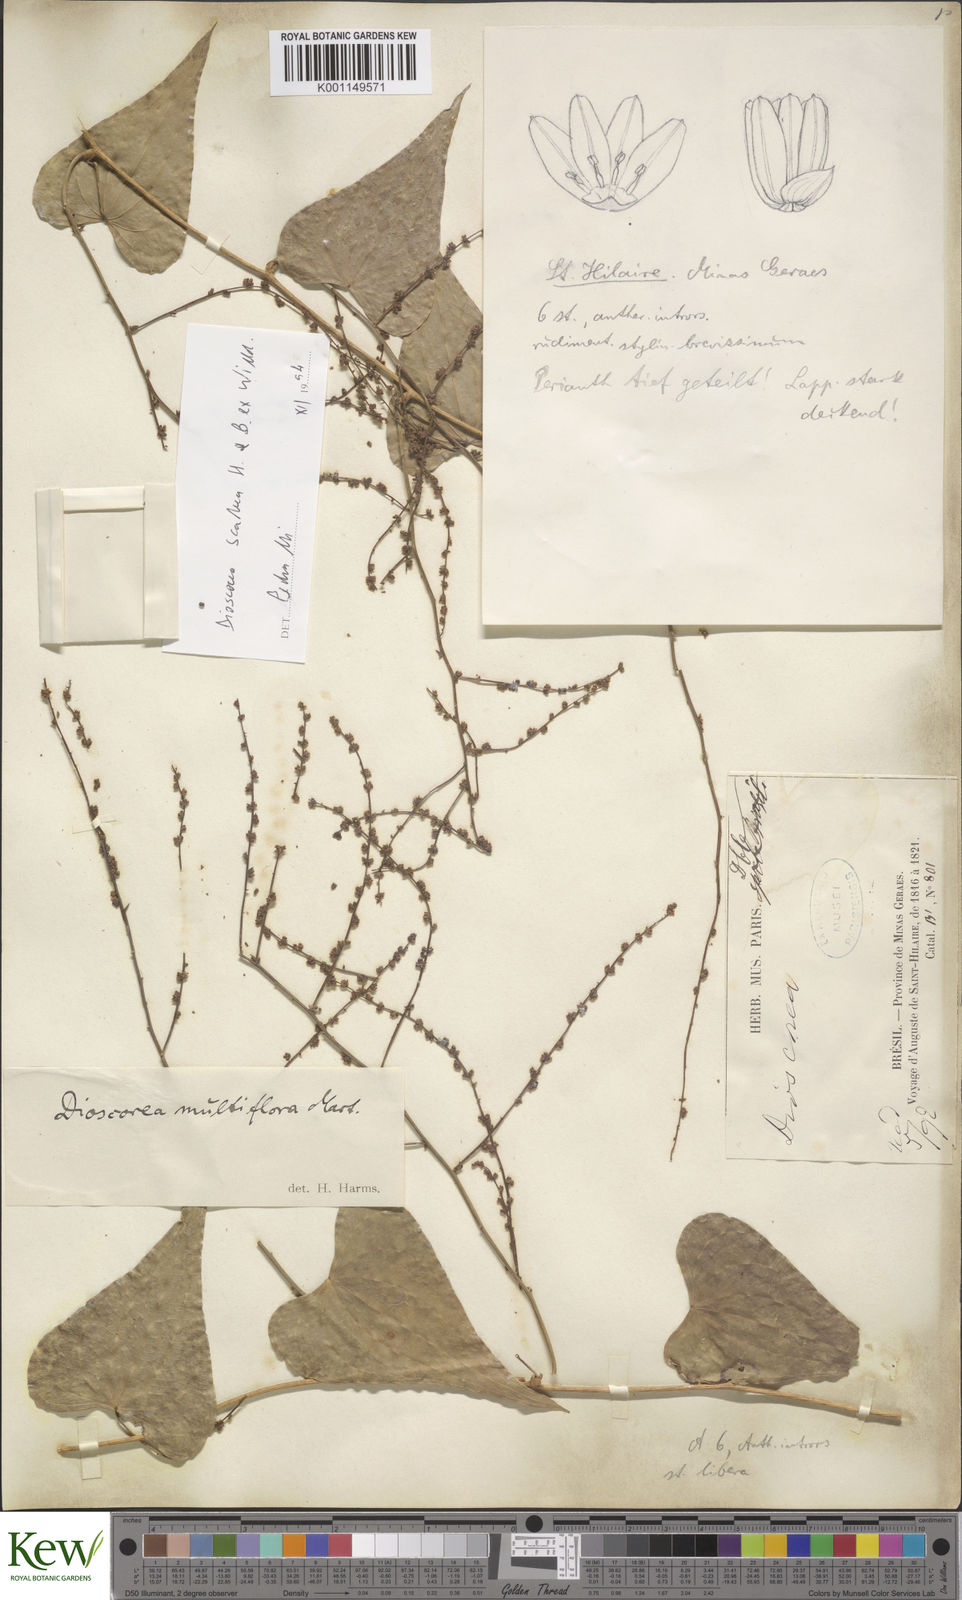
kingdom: Plantae
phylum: Tracheophyta
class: Liliopsida
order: Dioscoreales
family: Dioscoreaceae
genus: Dioscorea
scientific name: Dioscorea multiflora
